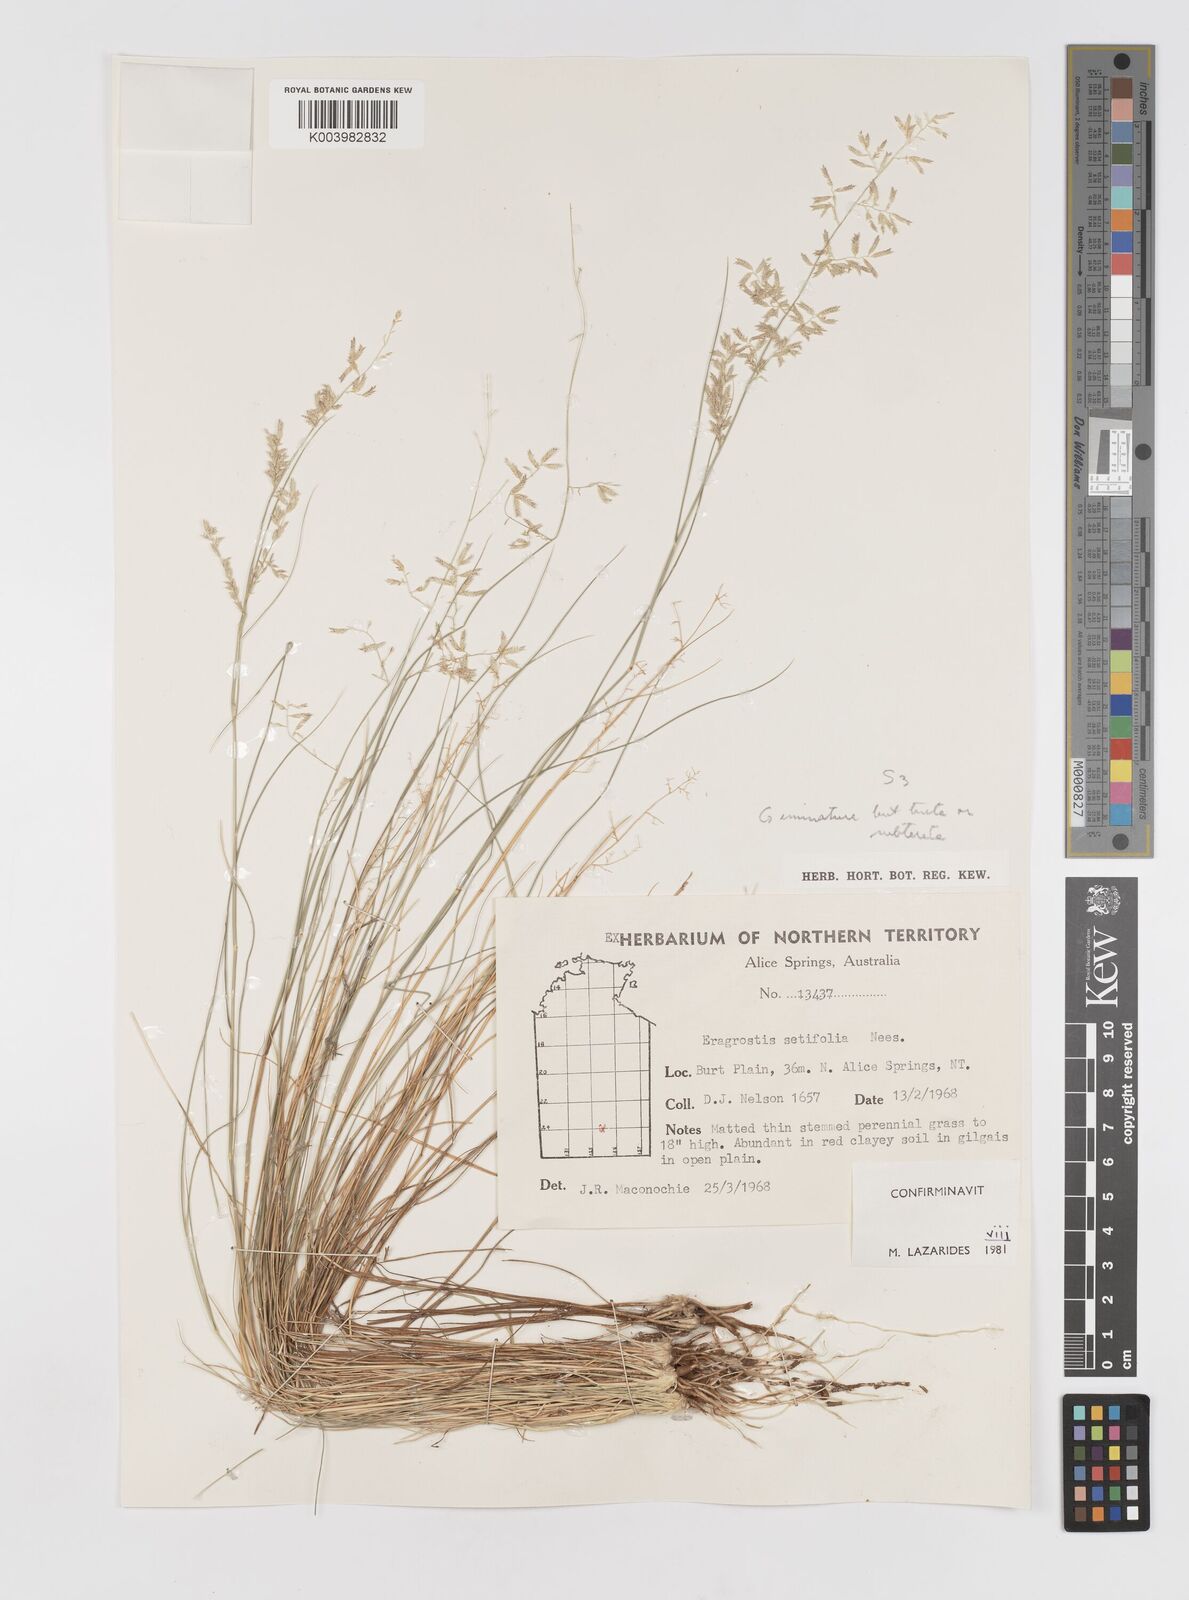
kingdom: Plantae
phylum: Tracheophyta
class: Liliopsida
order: Poales
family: Poaceae
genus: Eragrostis
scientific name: Eragrostis setifolia
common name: Bristleleaf lovegrass
